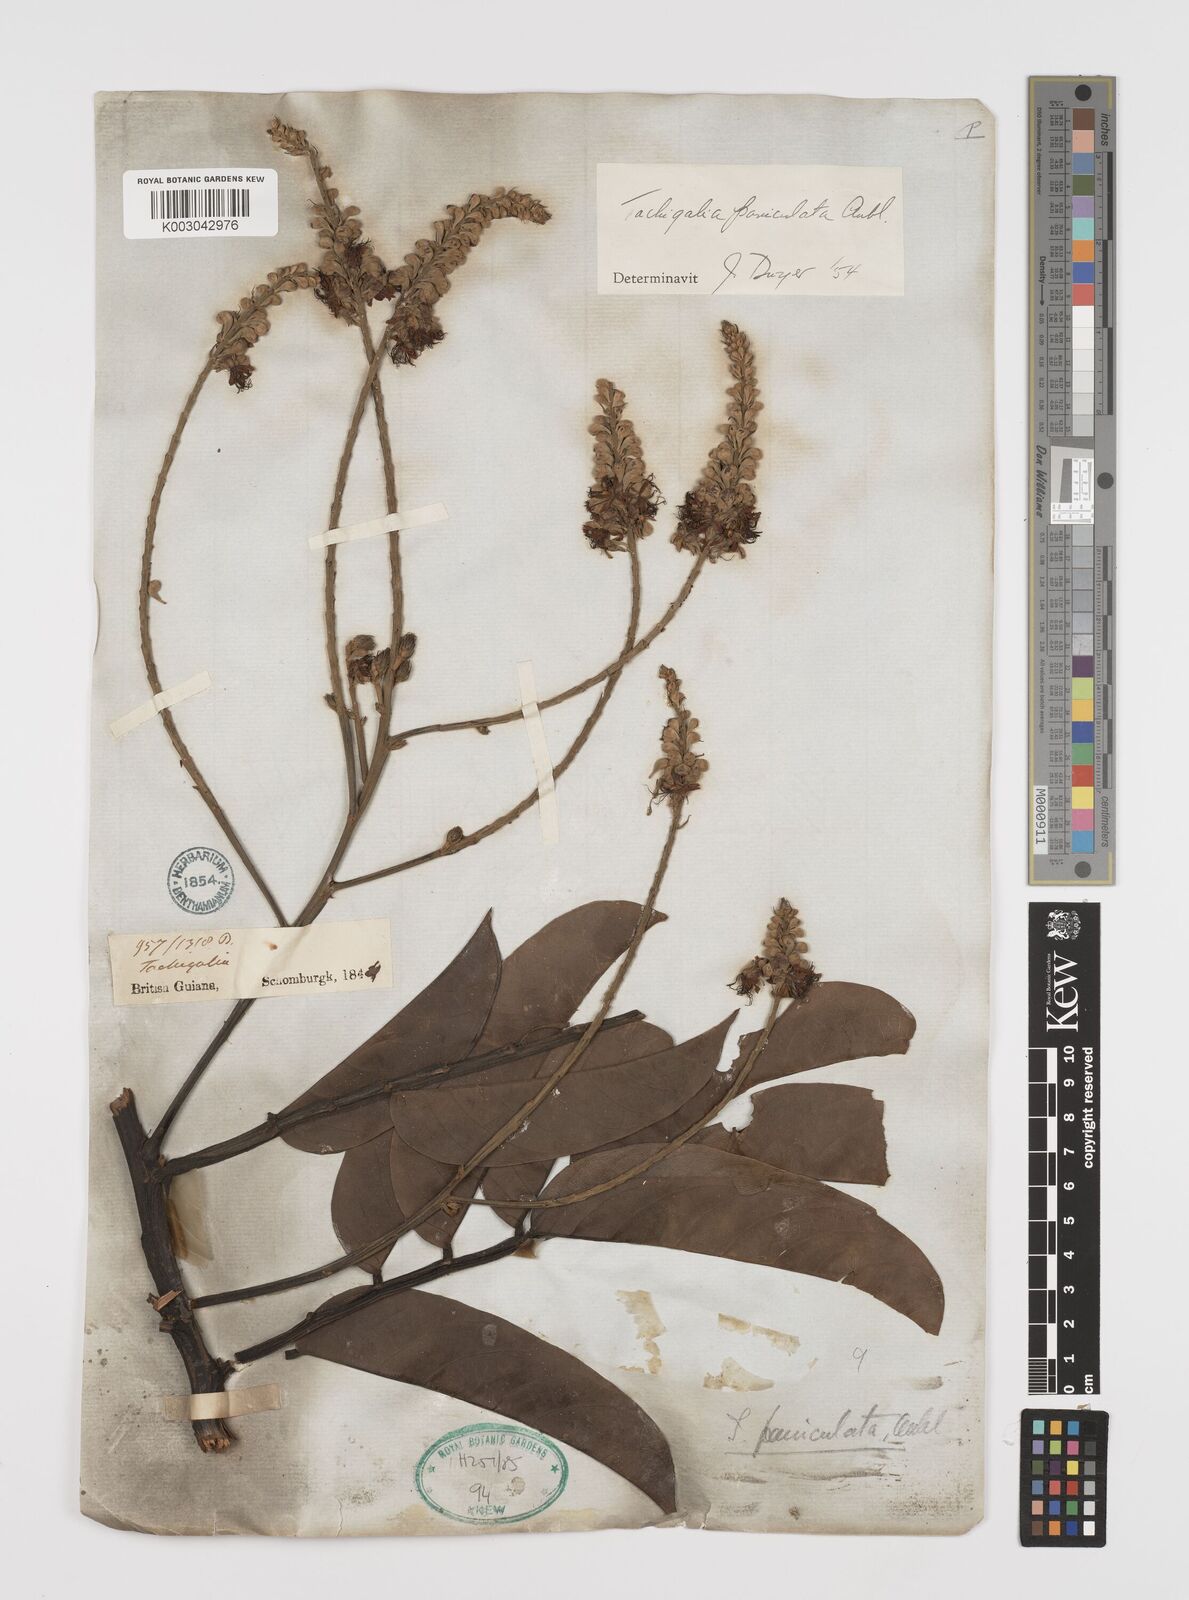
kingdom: Plantae
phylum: Tracheophyta
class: Magnoliopsida
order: Fabales
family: Fabaceae
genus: Tachigali
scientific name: Tachigali paniculata
